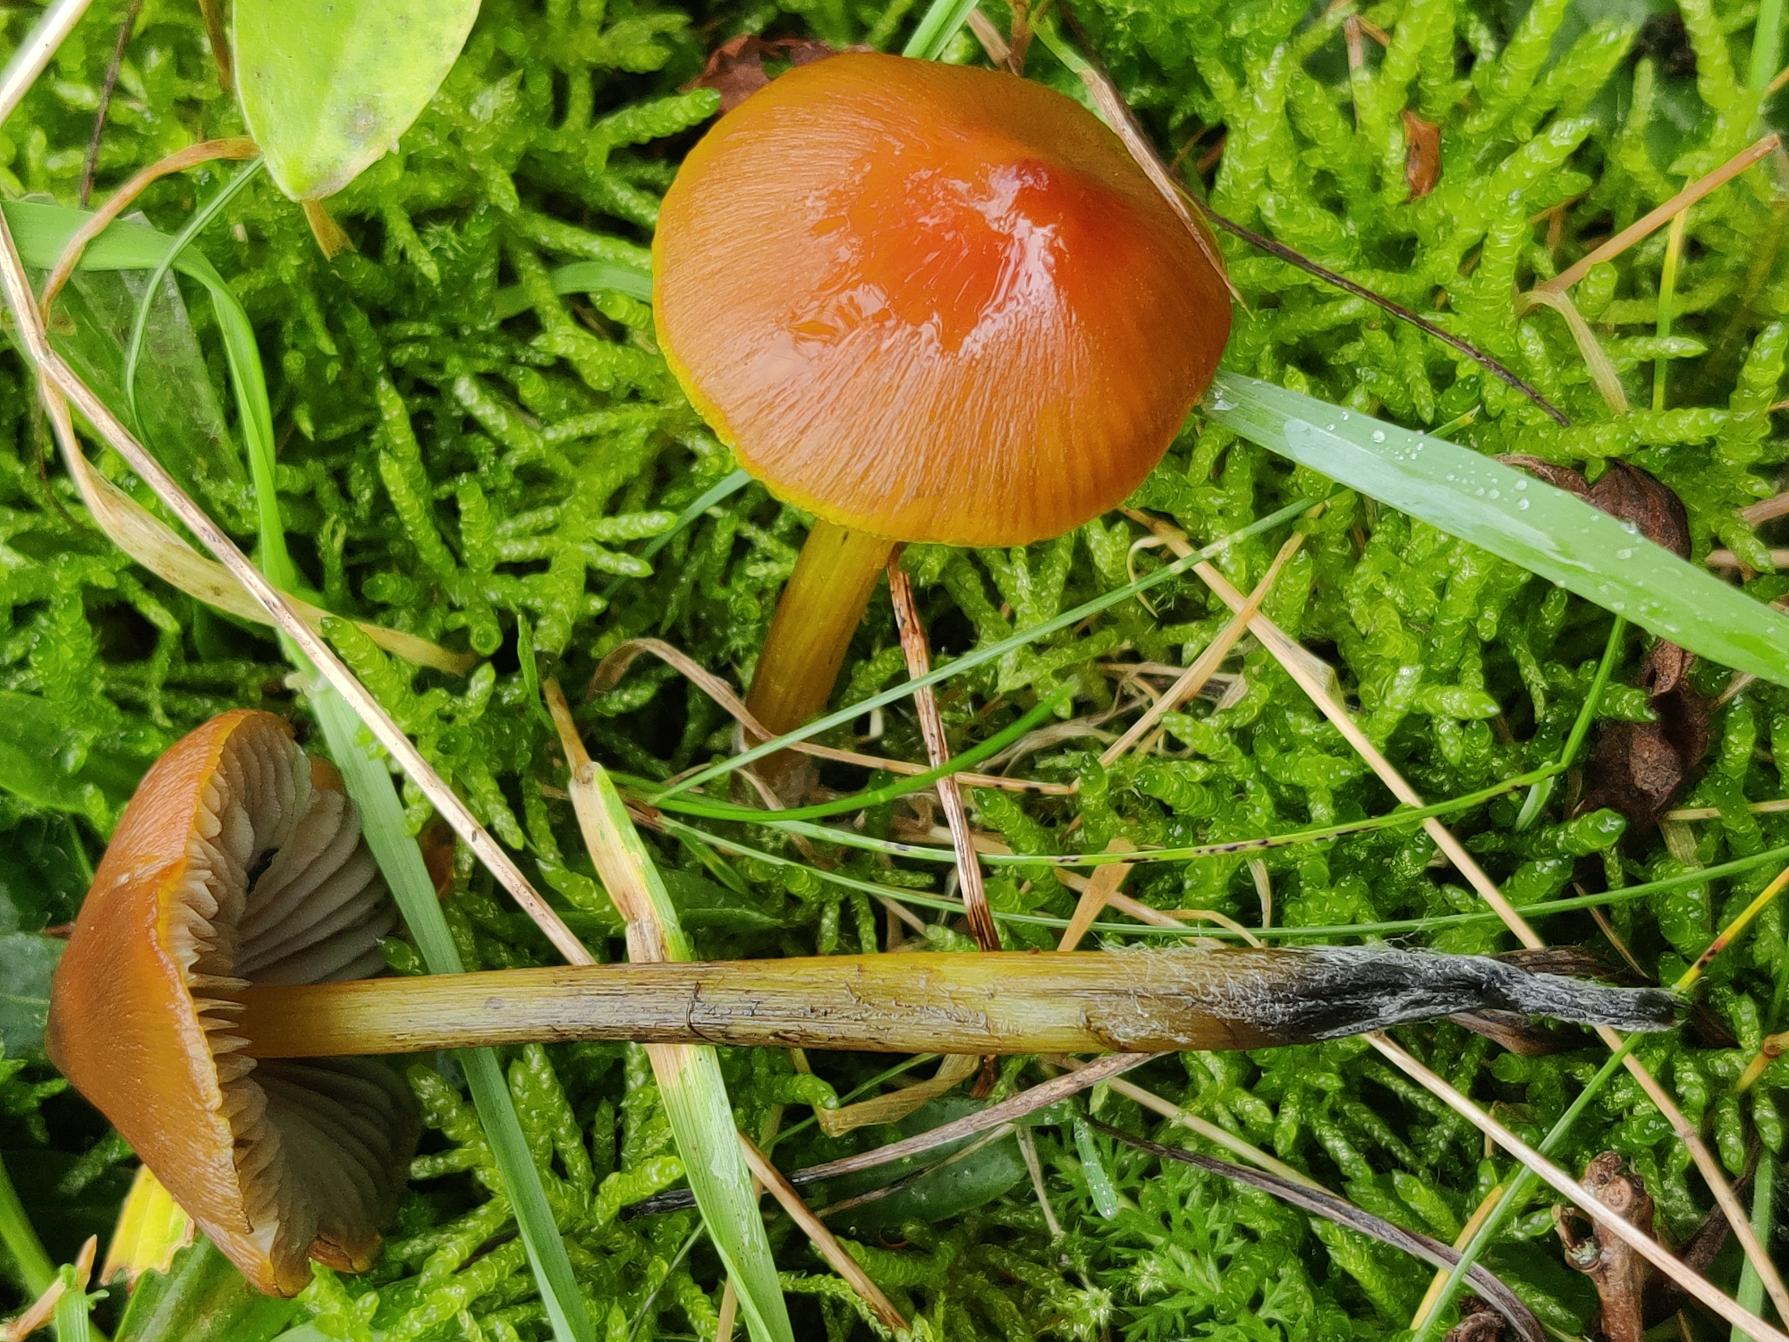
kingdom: Fungi
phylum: Basidiomycota
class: Agaricomycetes
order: Agaricales
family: Hygrophoraceae
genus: Hygrocybe
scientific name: Hygrocybe conica
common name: Kegle-vokshat
